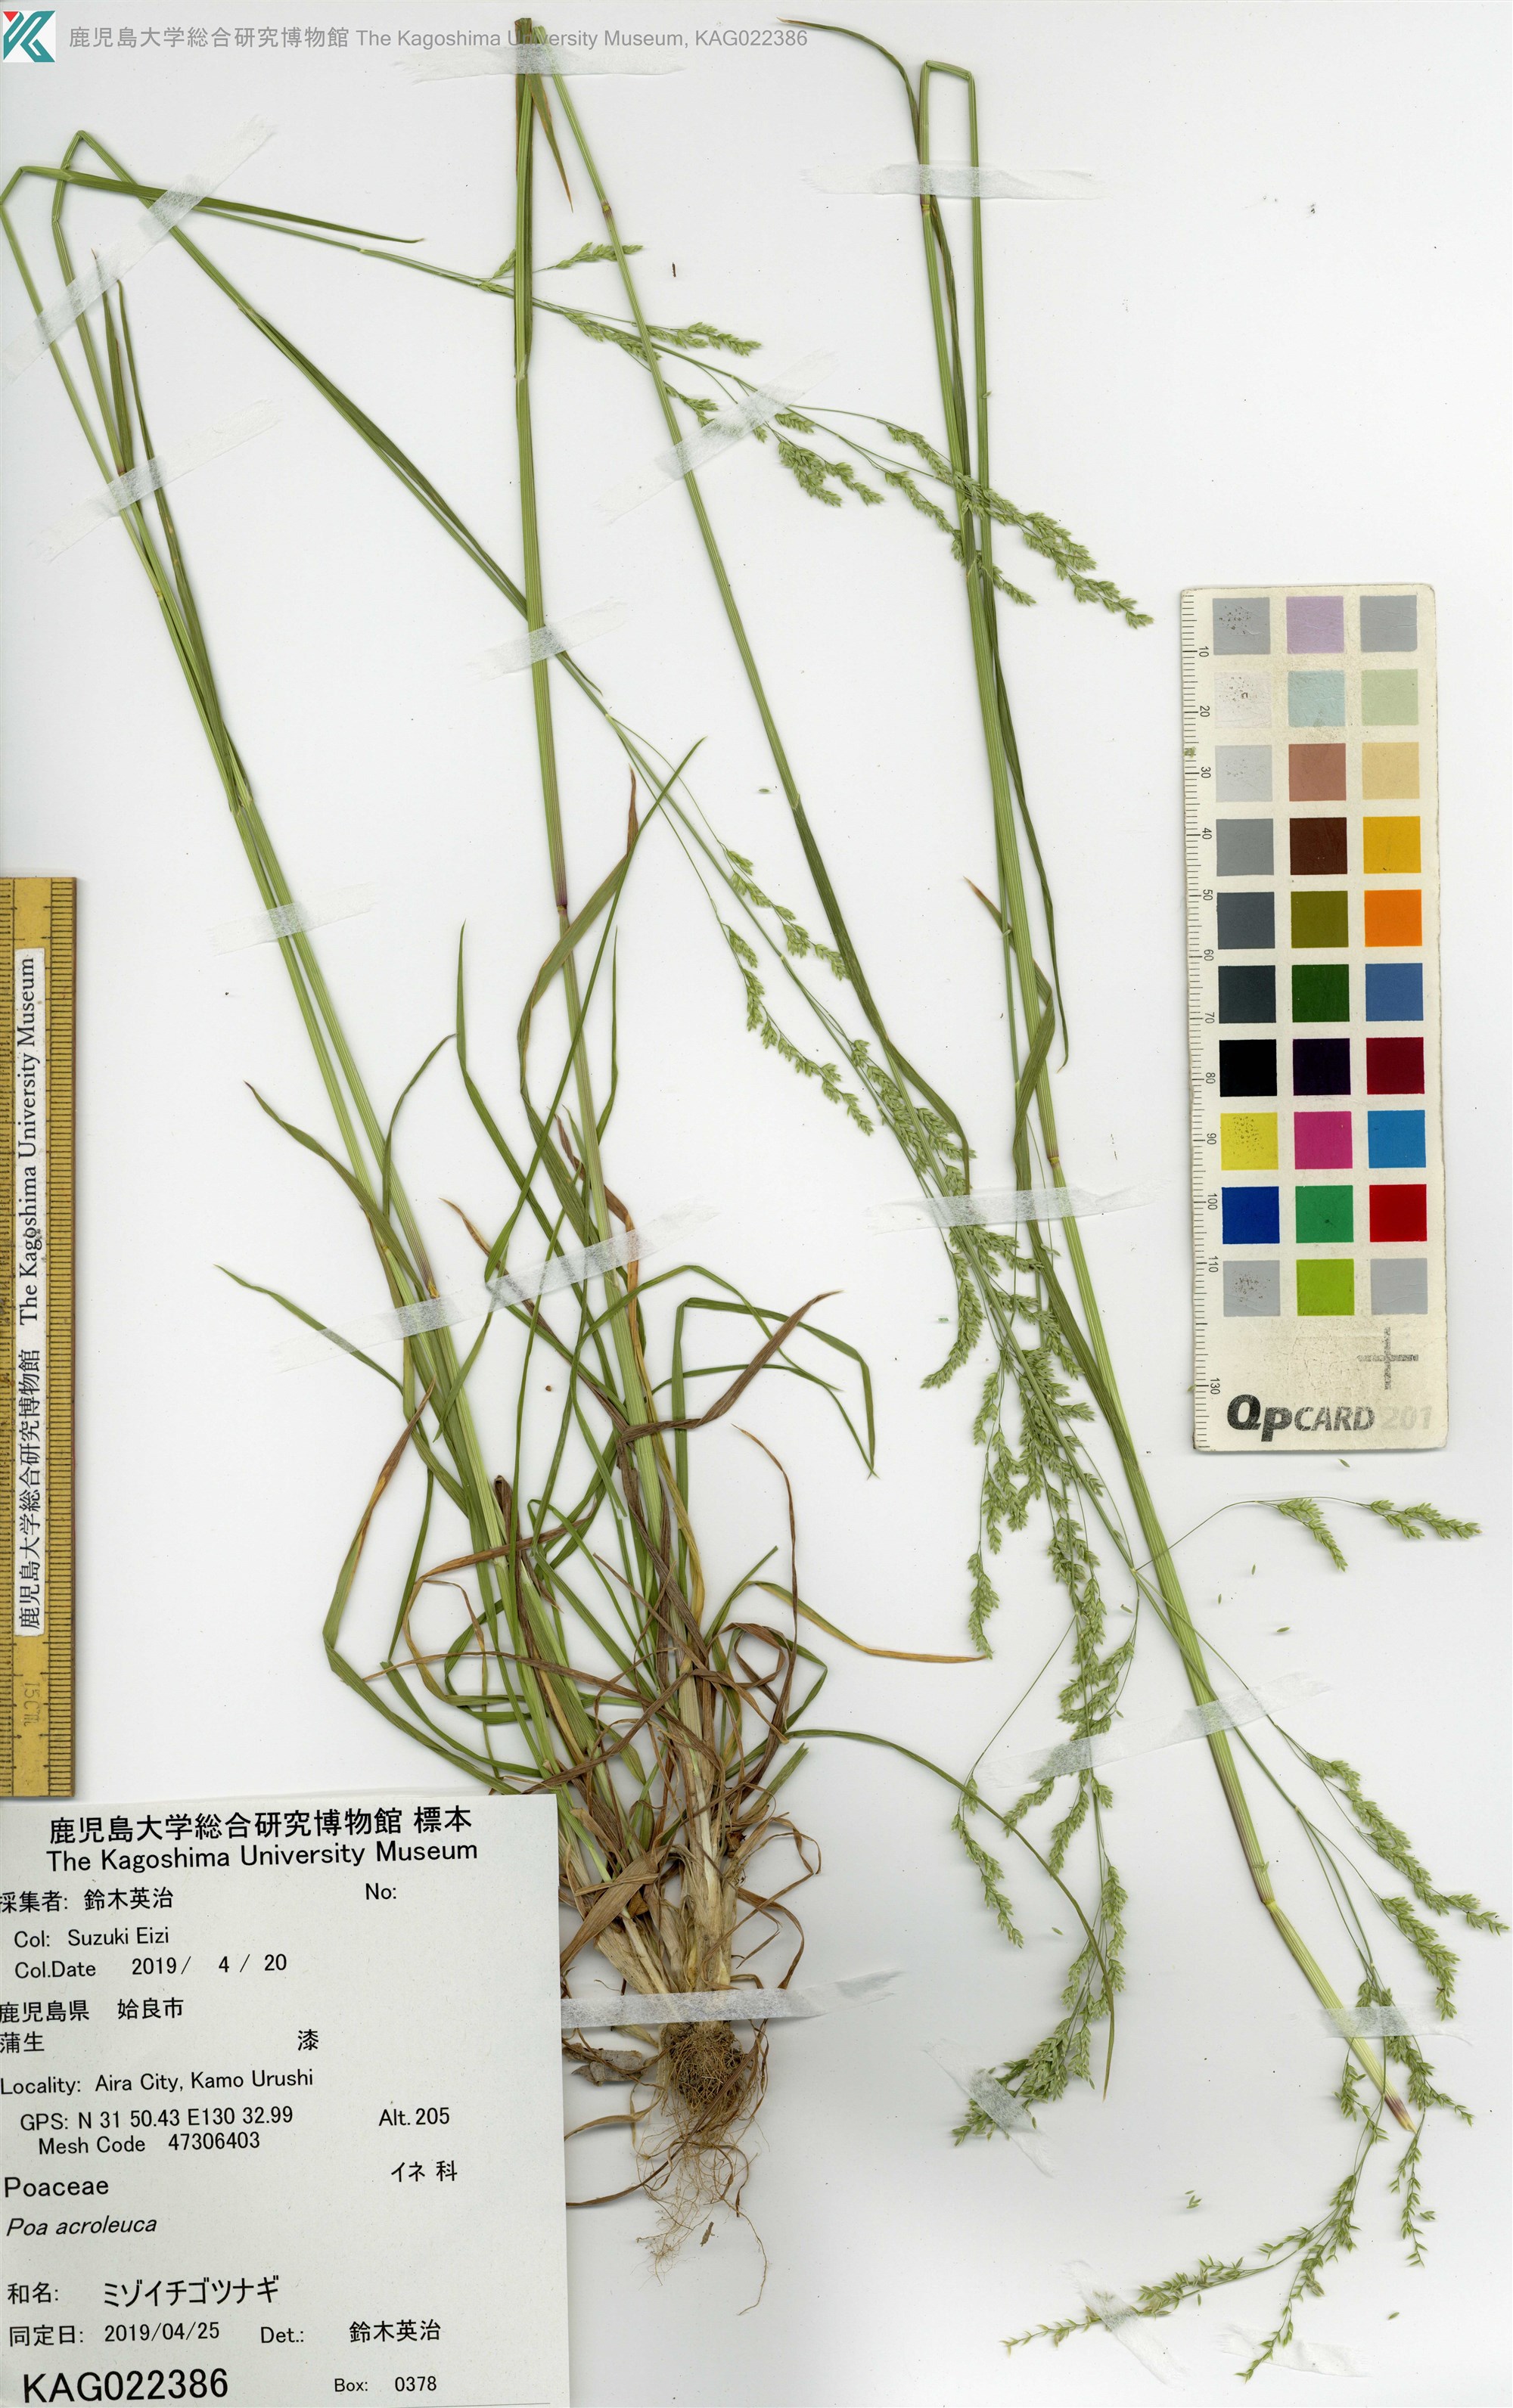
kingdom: Plantae
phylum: Tracheophyta
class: Liliopsida
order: Poales
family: Poaceae
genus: Poa
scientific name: Poa acroleuca
